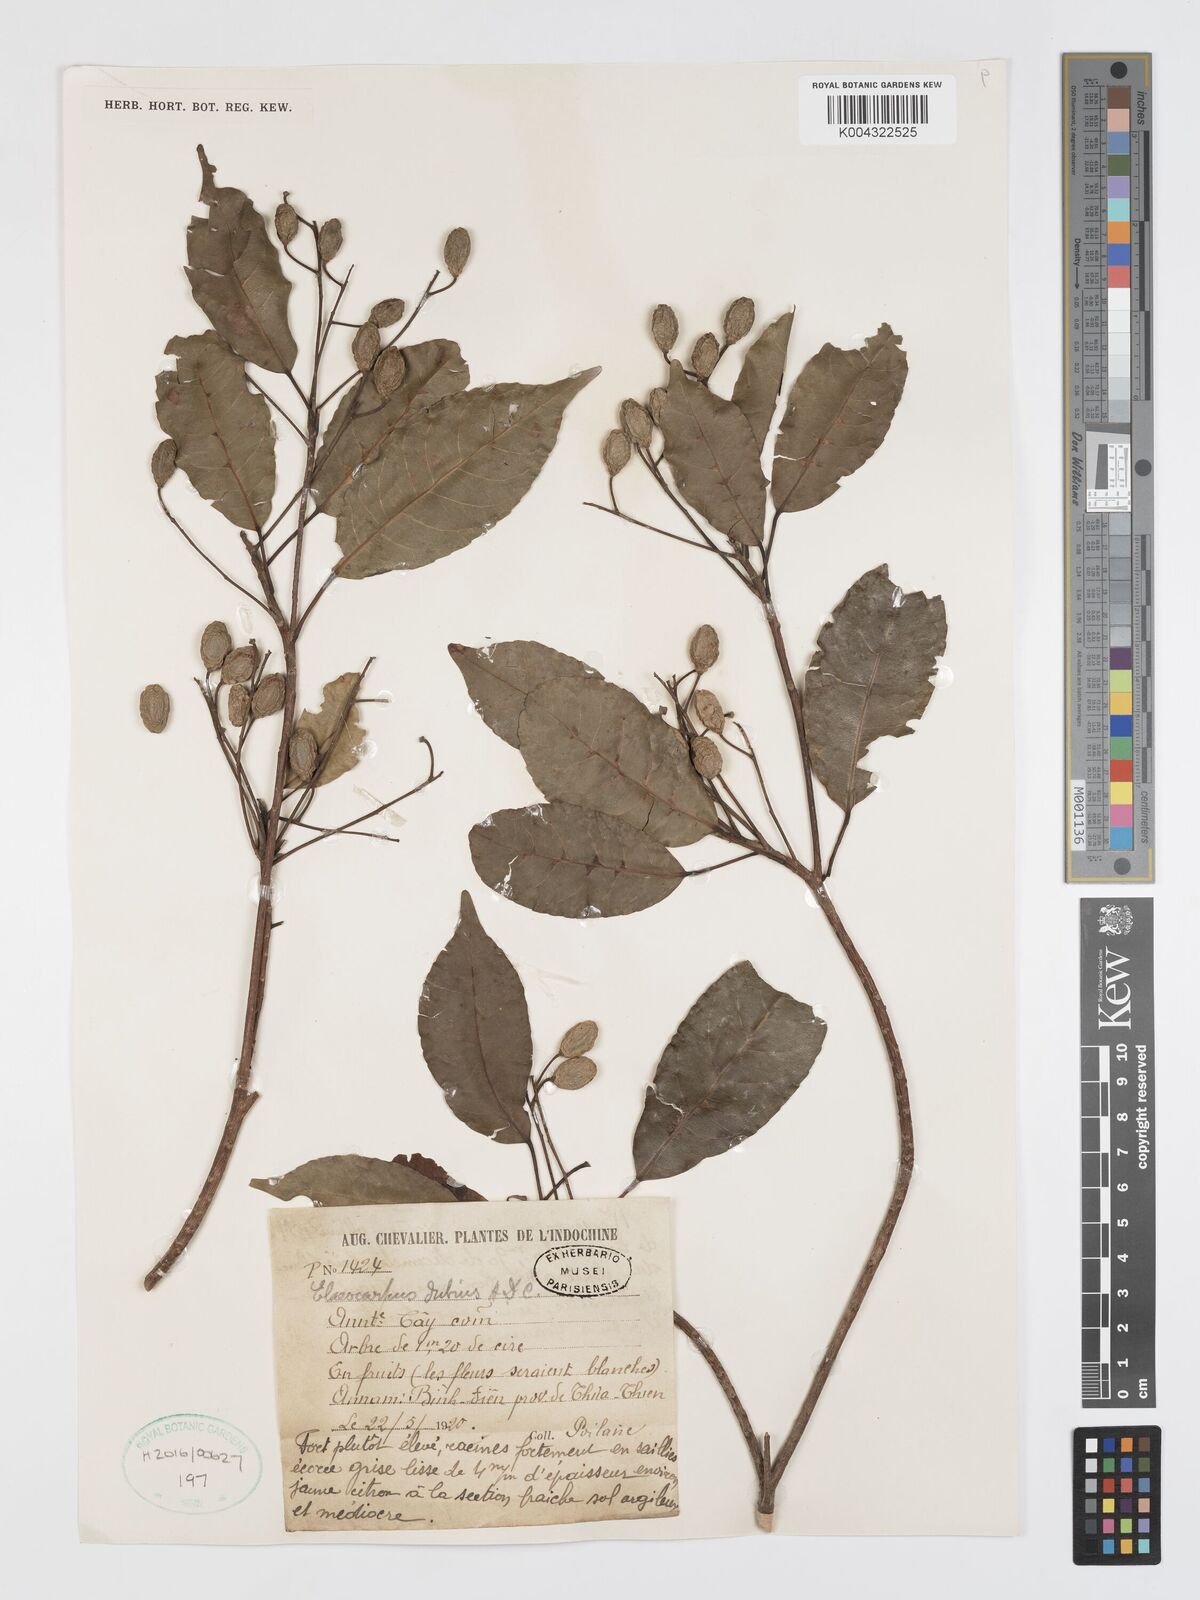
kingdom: Plantae
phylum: Tracheophyta
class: Magnoliopsida
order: Oxalidales
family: Elaeocarpaceae
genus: Elaeocarpus
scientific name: Elaeocarpus dubius
